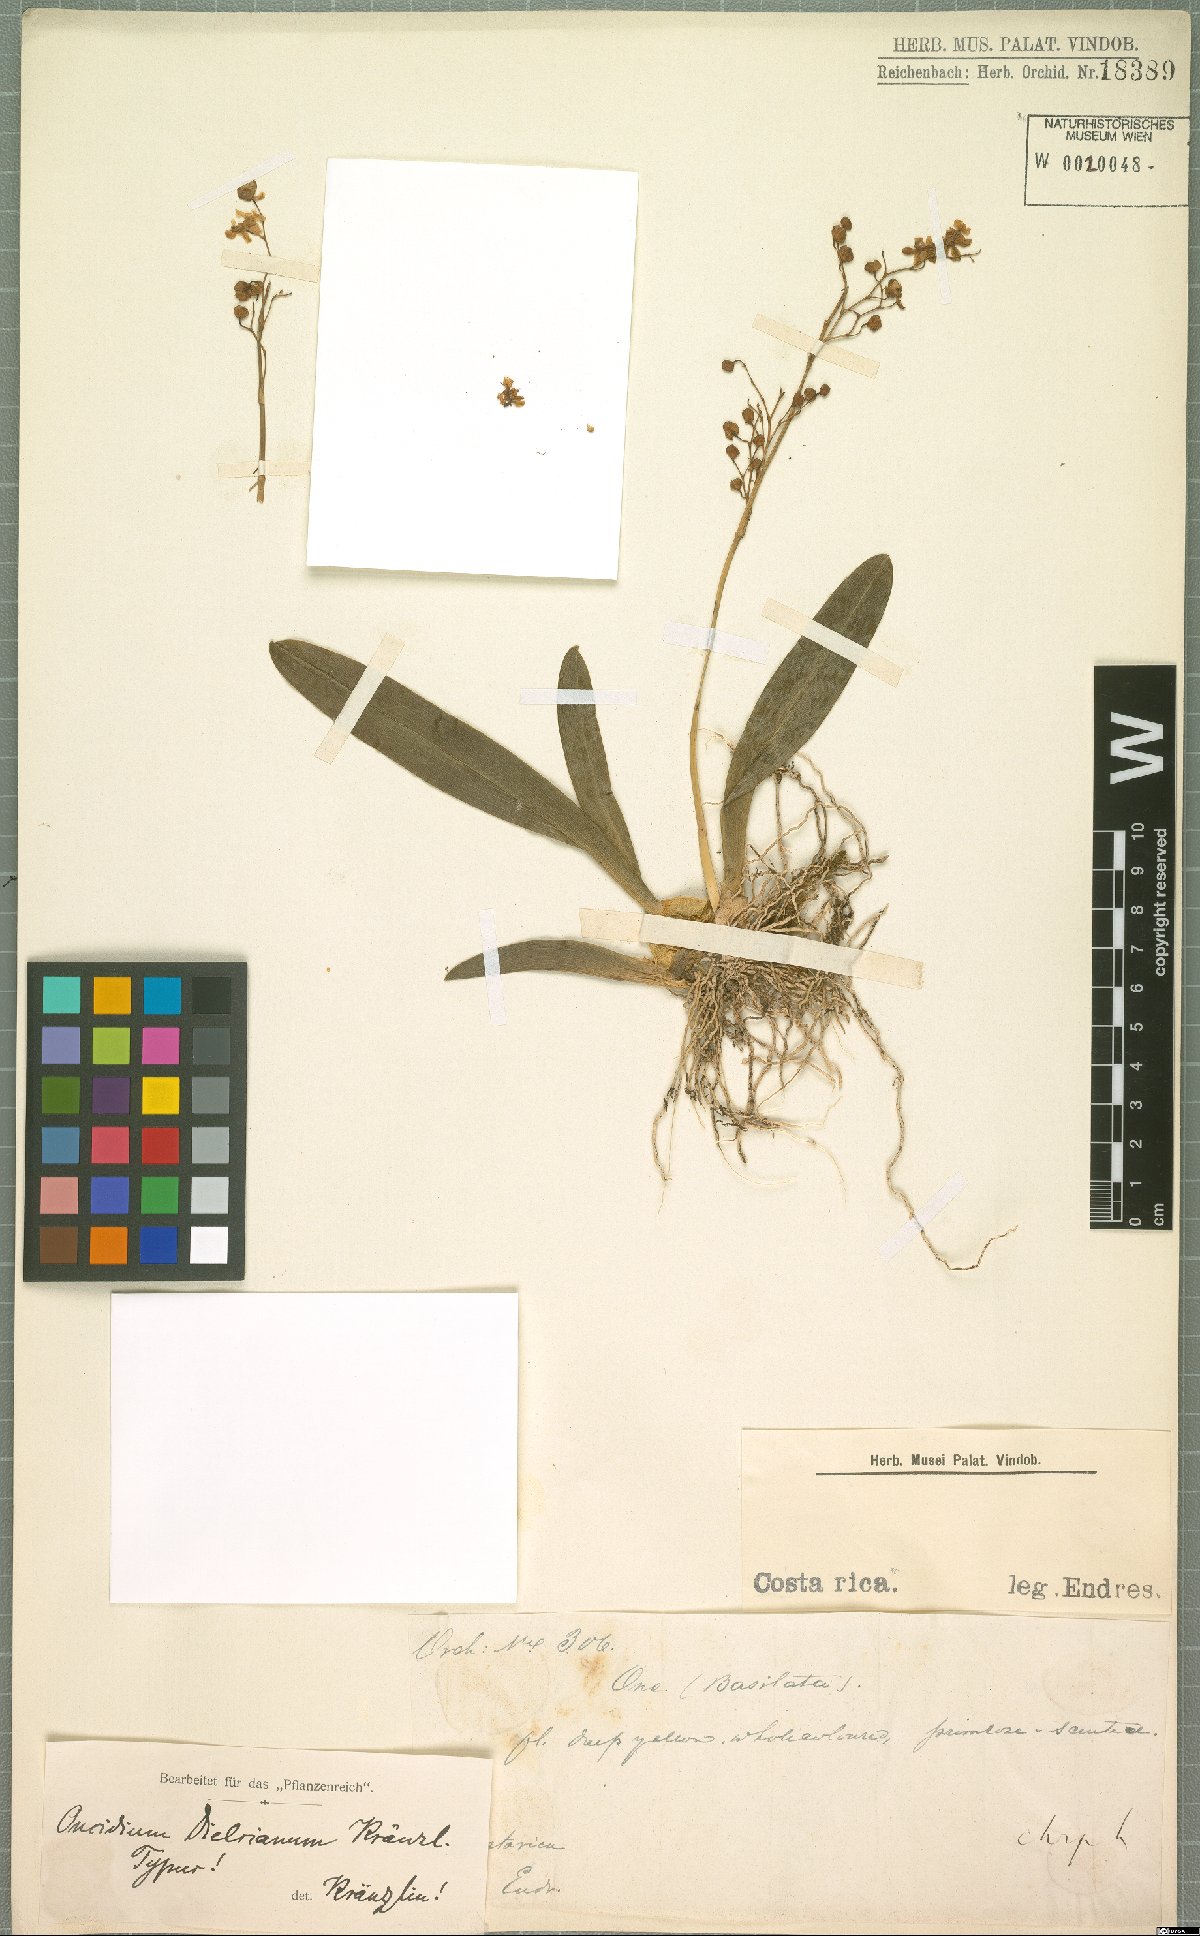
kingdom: Plantae
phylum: Tracheophyta
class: Liliopsida
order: Asparagales
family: Orchidaceae
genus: Oncidium
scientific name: Oncidium cheirophorum
